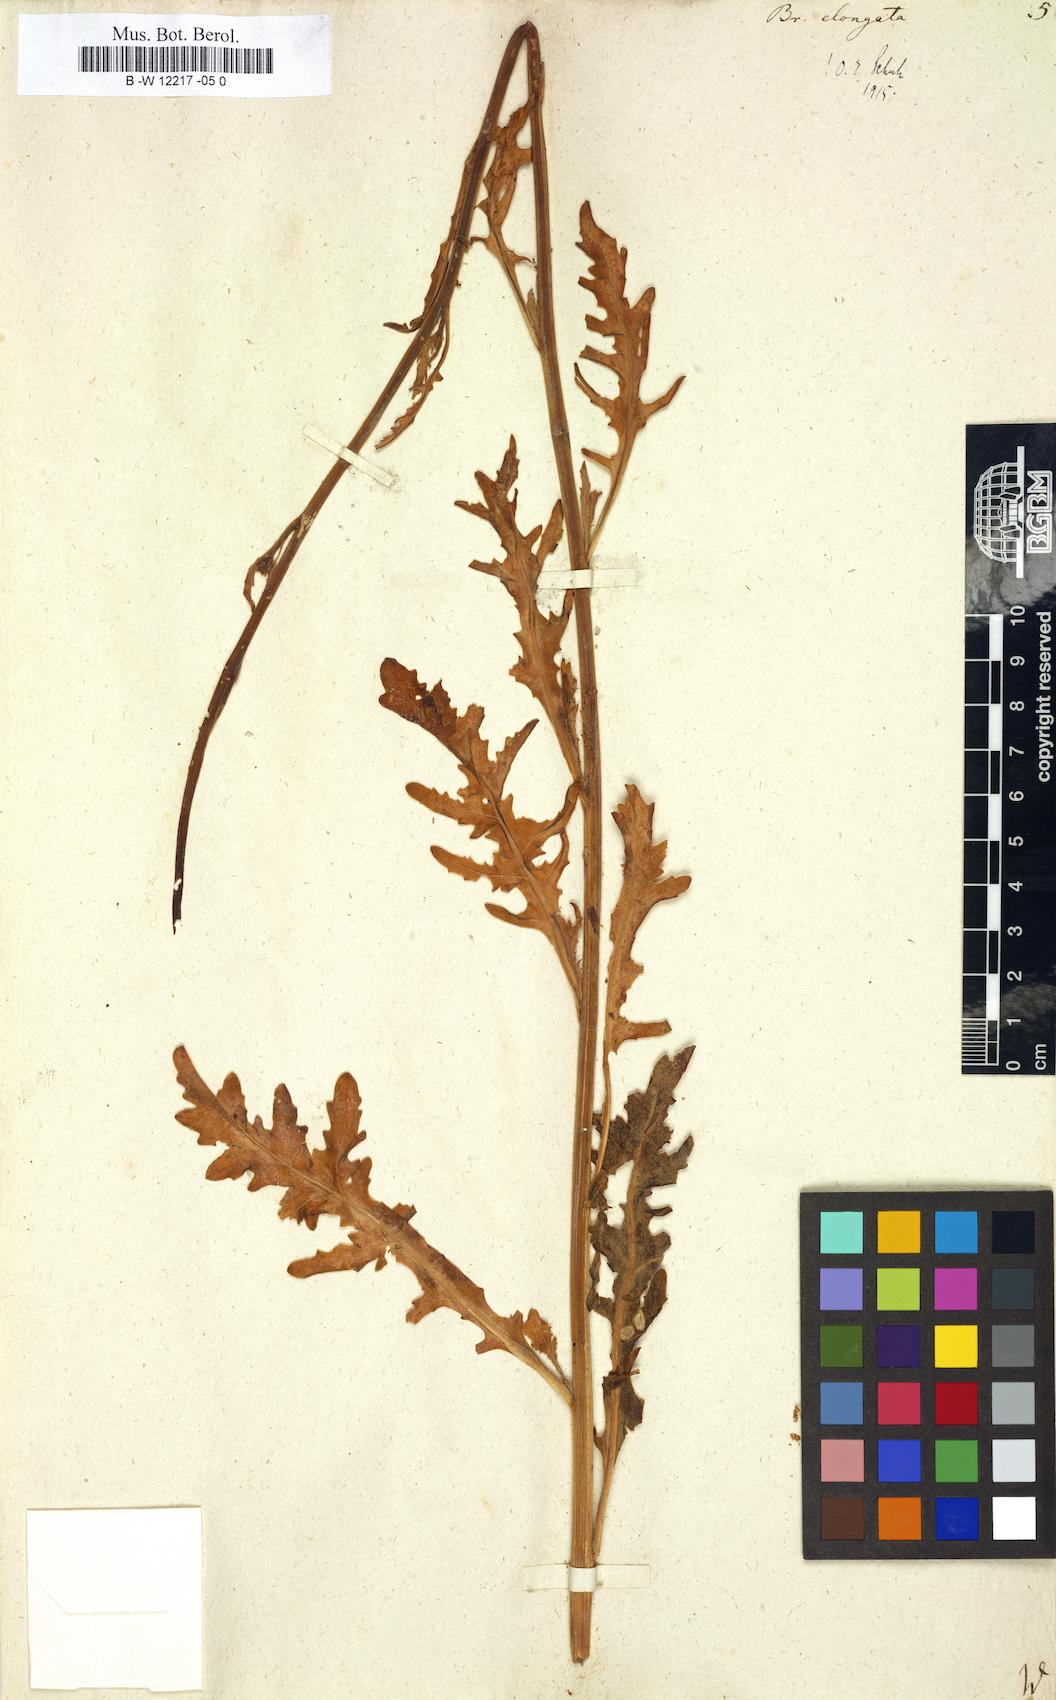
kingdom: Plantae
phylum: Tracheophyta
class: Magnoliopsida
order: Brassicales
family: Brassicaceae
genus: Brassica
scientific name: Brassica elongata
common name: Long-stalked rape
